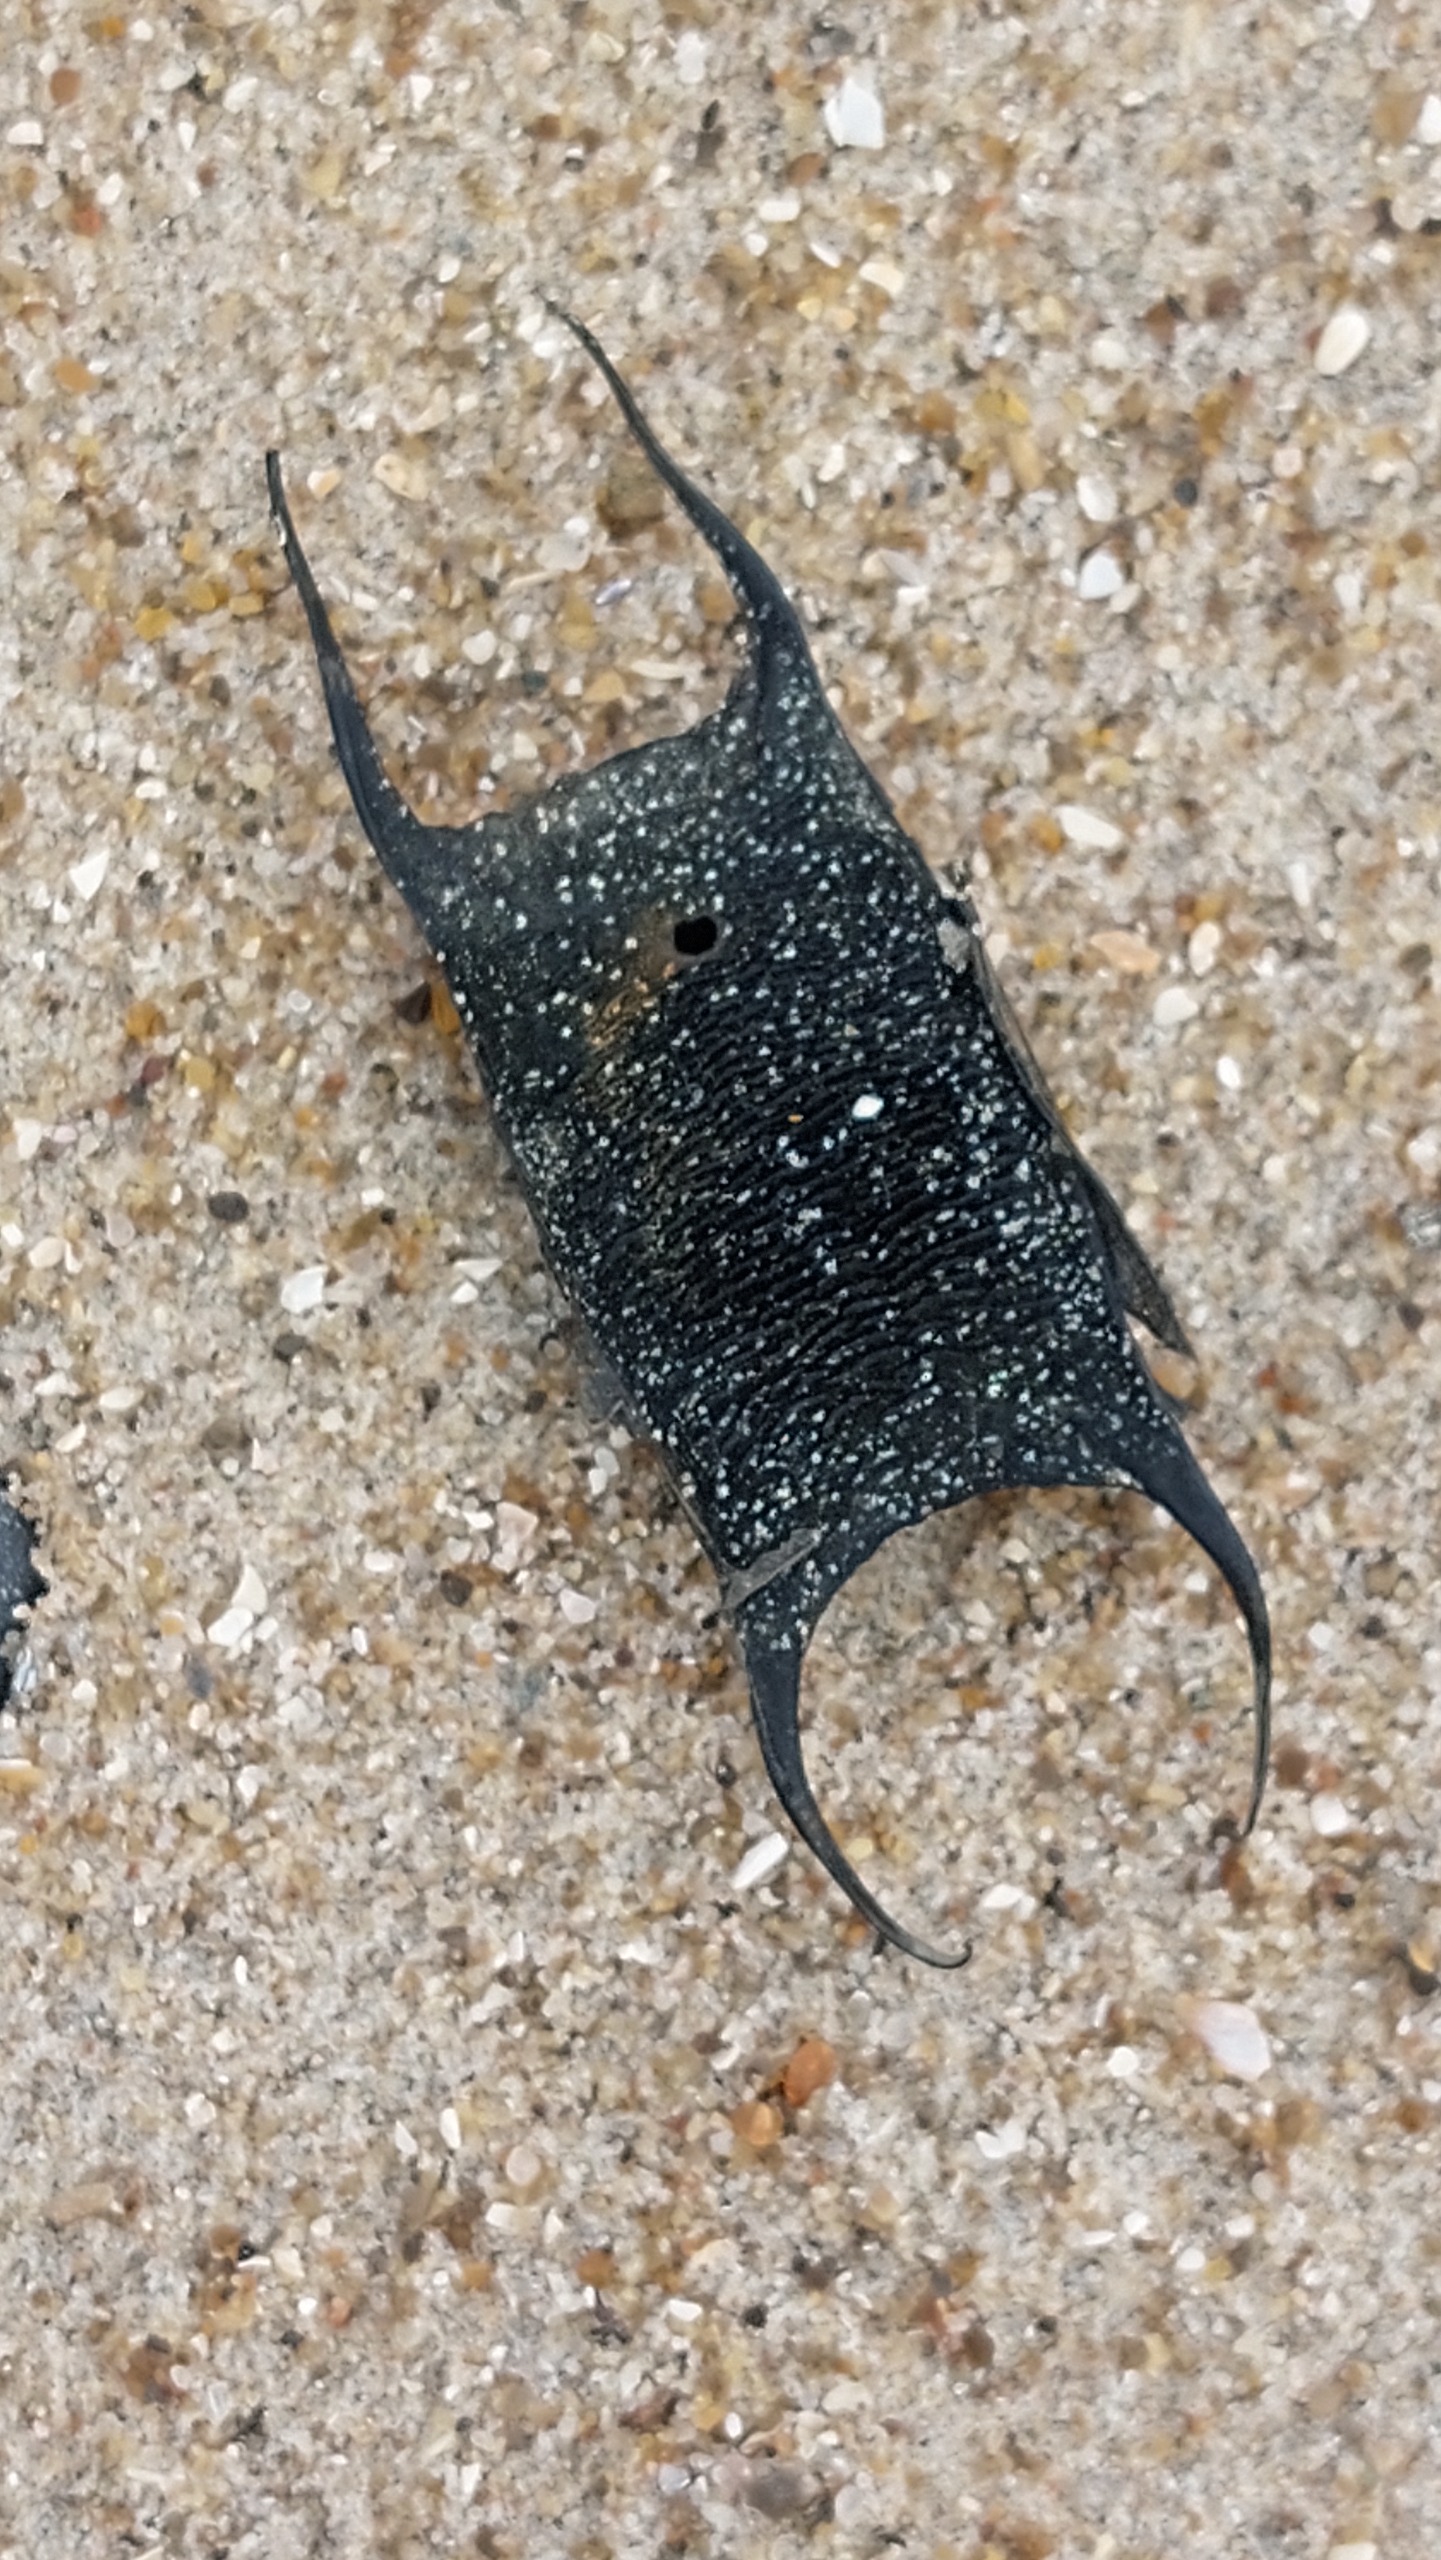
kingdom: Animalia
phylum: Chordata
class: Elasmobranchii
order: Rajiformes
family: Rajidae
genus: Amblyraja
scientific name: Amblyraja radiata
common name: Tærbe
